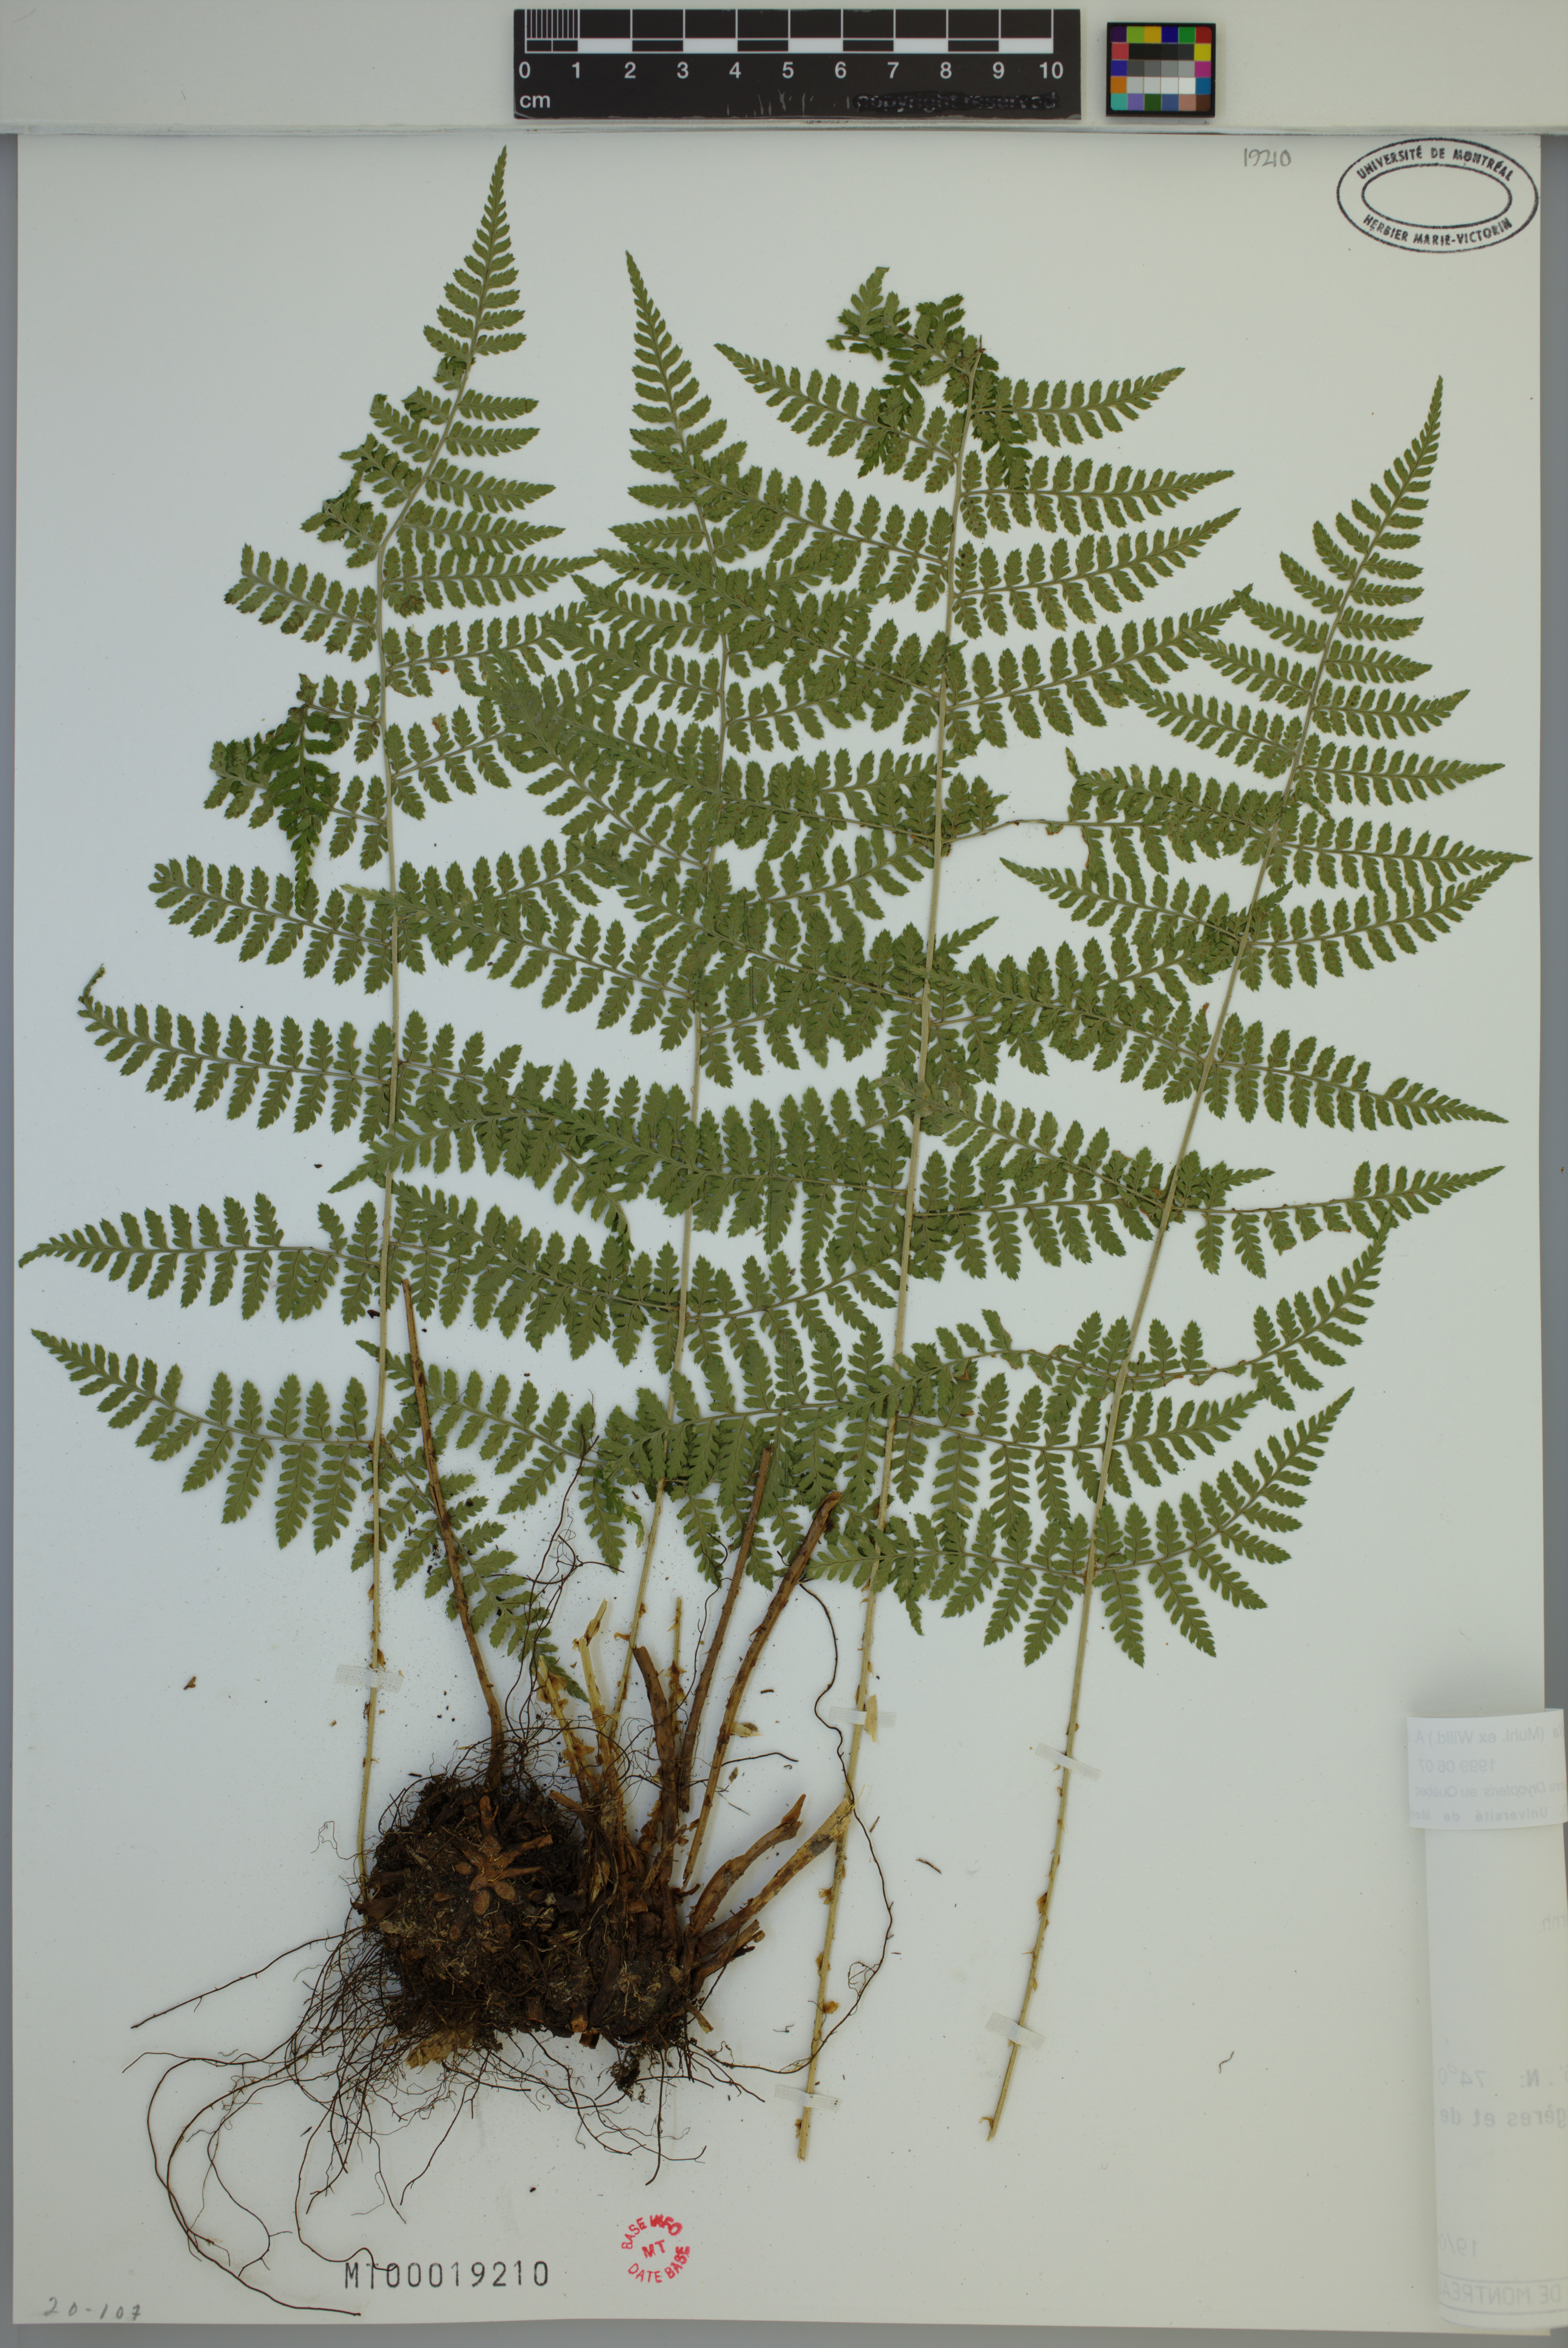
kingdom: Plantae
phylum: Tracheophyta
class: Polypodiopsida
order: Polypodiales
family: Dryopteridaceae
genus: Dryopteris
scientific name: Dryopteris intermedia
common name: Evergreen wood fern
